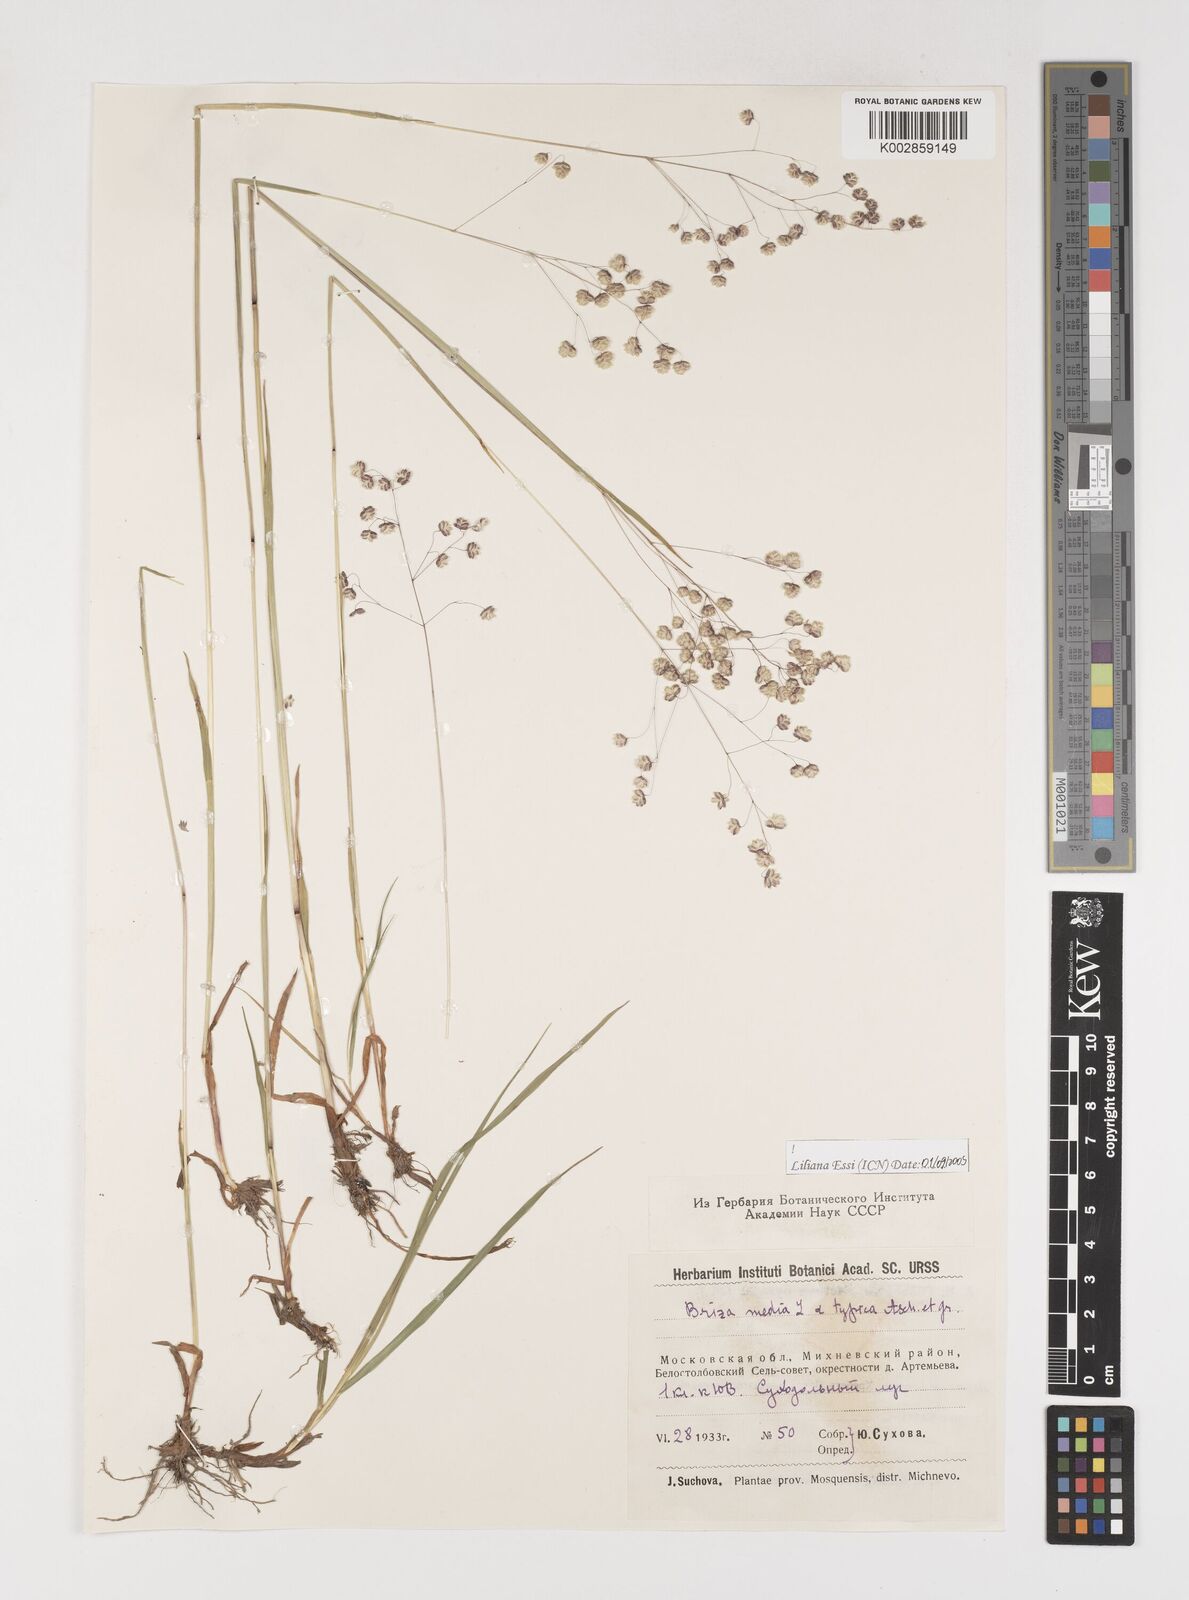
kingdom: Plantae
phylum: Tracheophyta
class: Liliopsida
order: Poales
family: Poaceae
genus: Briza
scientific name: Briza media
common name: Quaking grass
